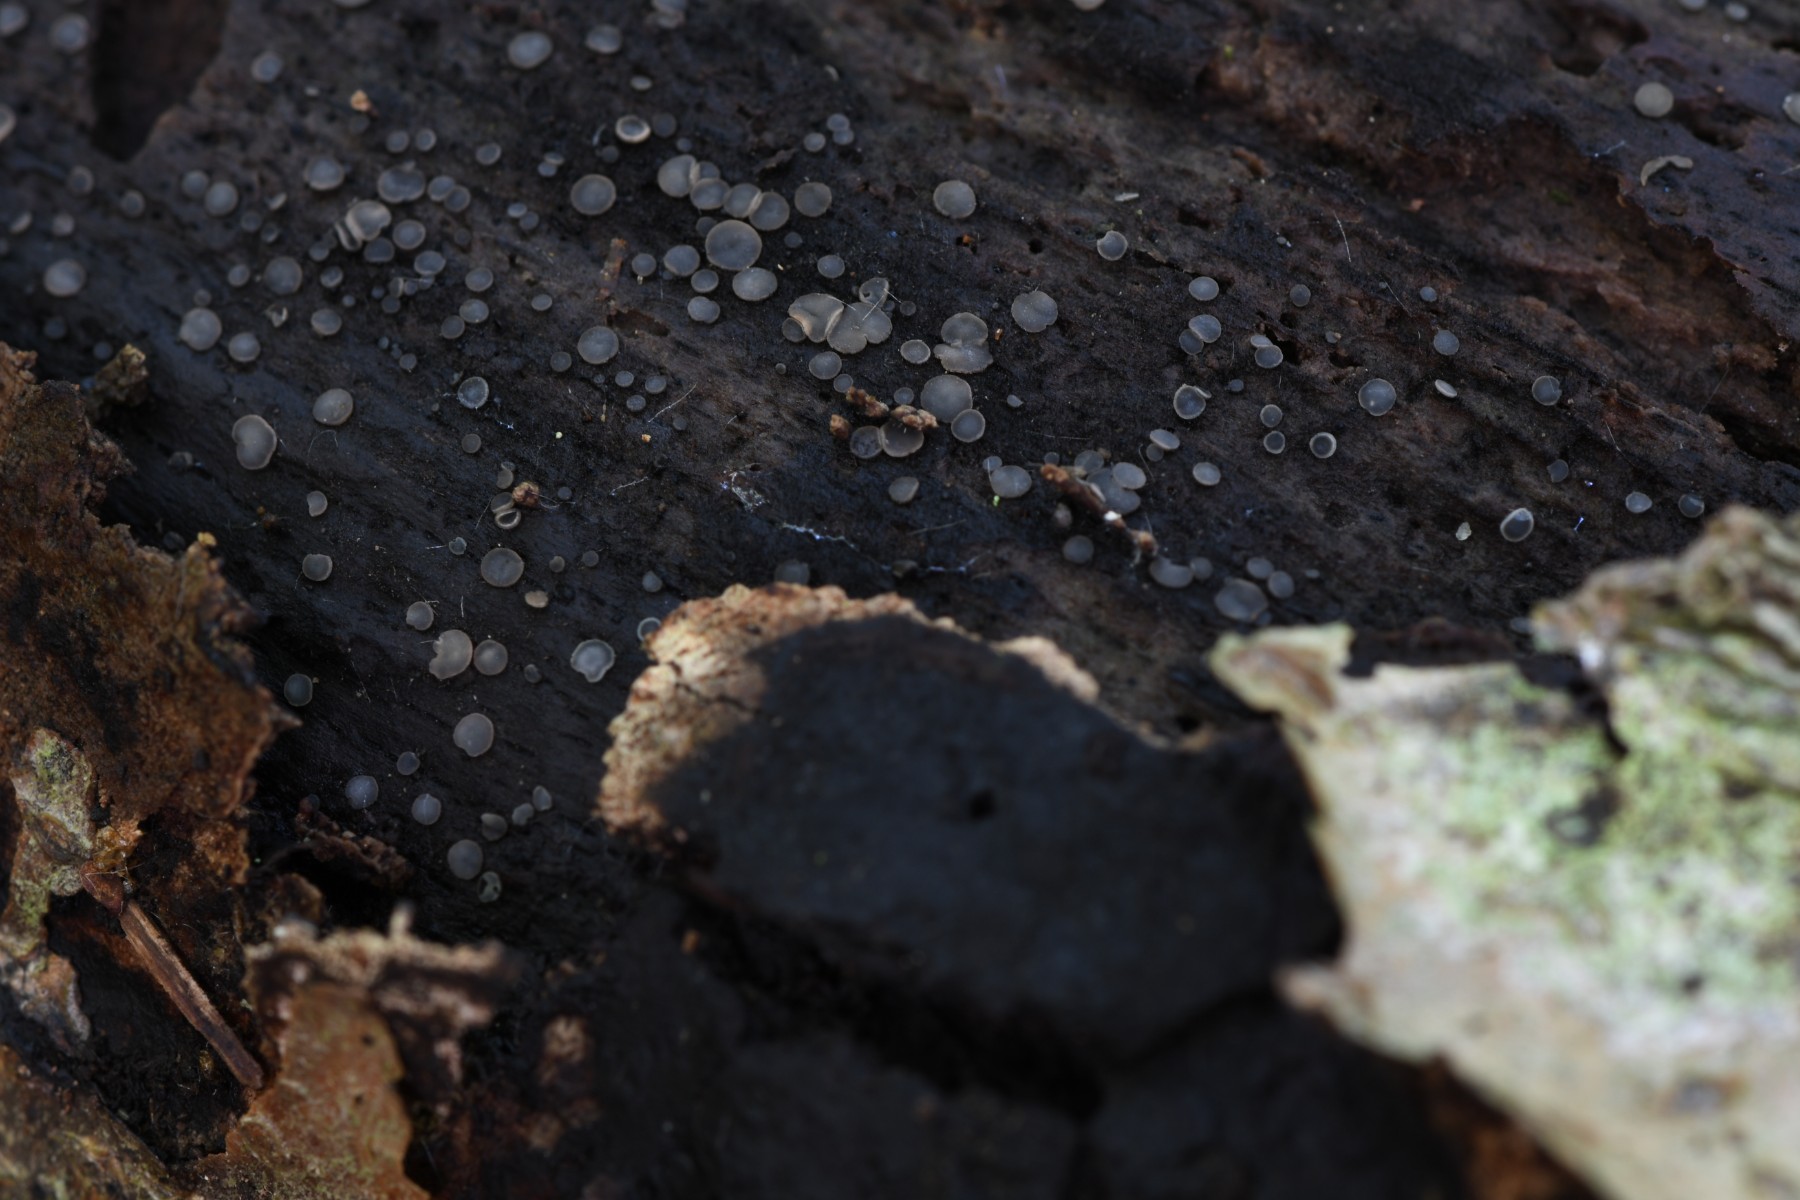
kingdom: Fungi
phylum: Ascomycota
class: Leotiomycetes
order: Helotiales
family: Mollisiaceae
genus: Mollisia
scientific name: Mollisia cinerea
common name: almindelig gråskive
